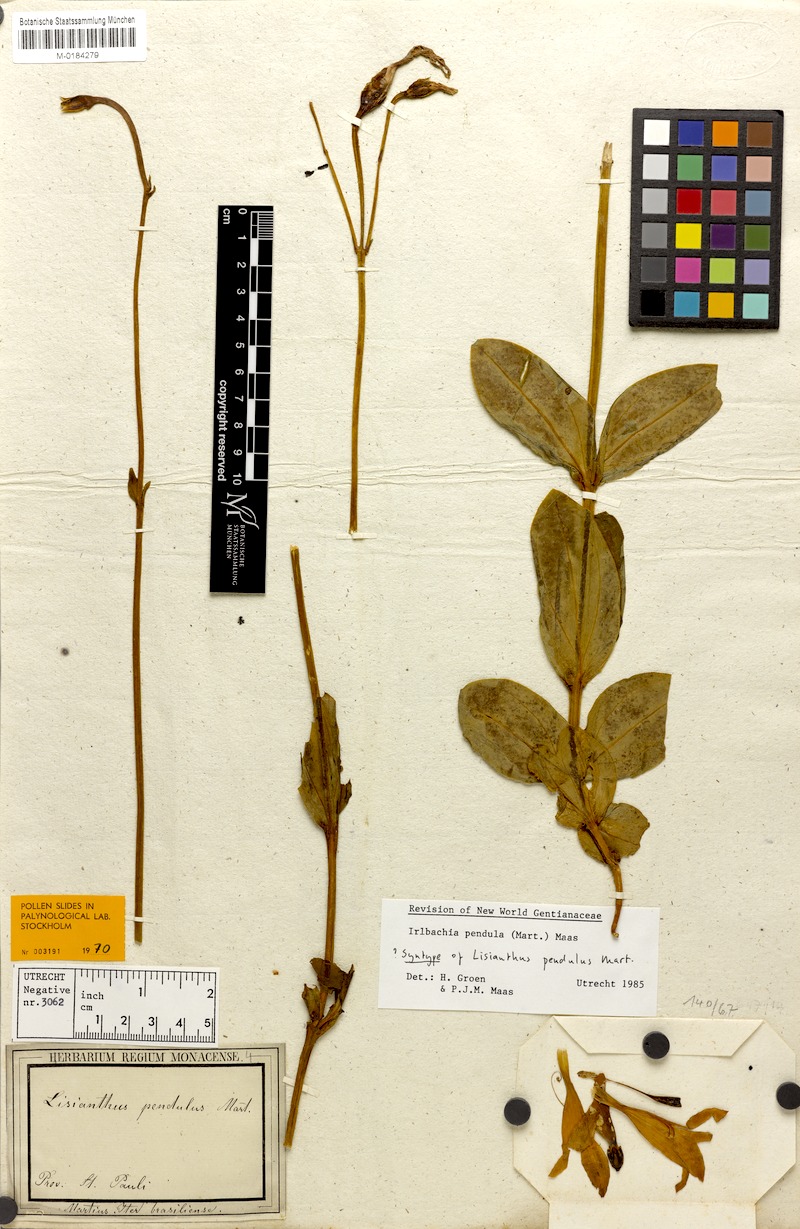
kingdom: Plantae
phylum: Tracheophyta
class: Magnoliopsida
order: Gentianales
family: Gentianaceae
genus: Calolisianthus
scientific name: Calolisianthus pendulus
